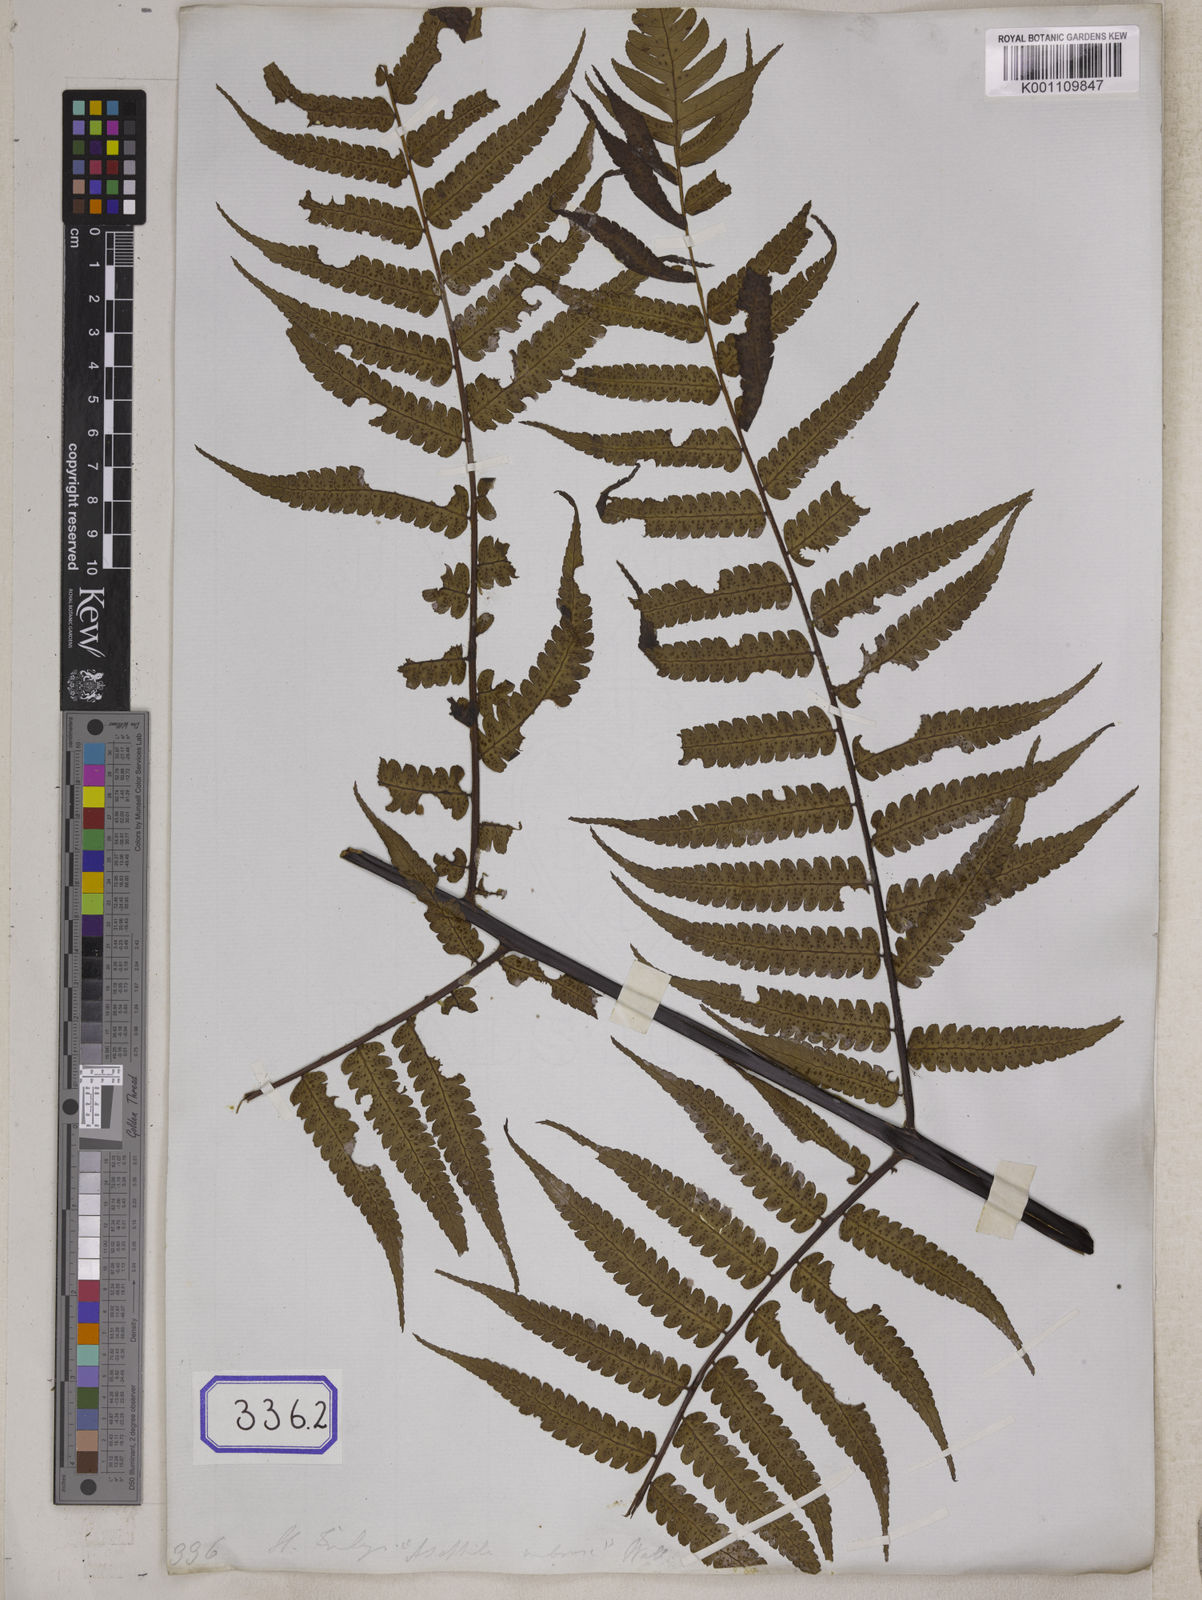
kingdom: Plantae
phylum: Tracheophyta
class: Polypodiopsida
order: Cyatheales
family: Cyatheaceae
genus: Gymnosphaera
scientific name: Gymnosphaera gigantea
